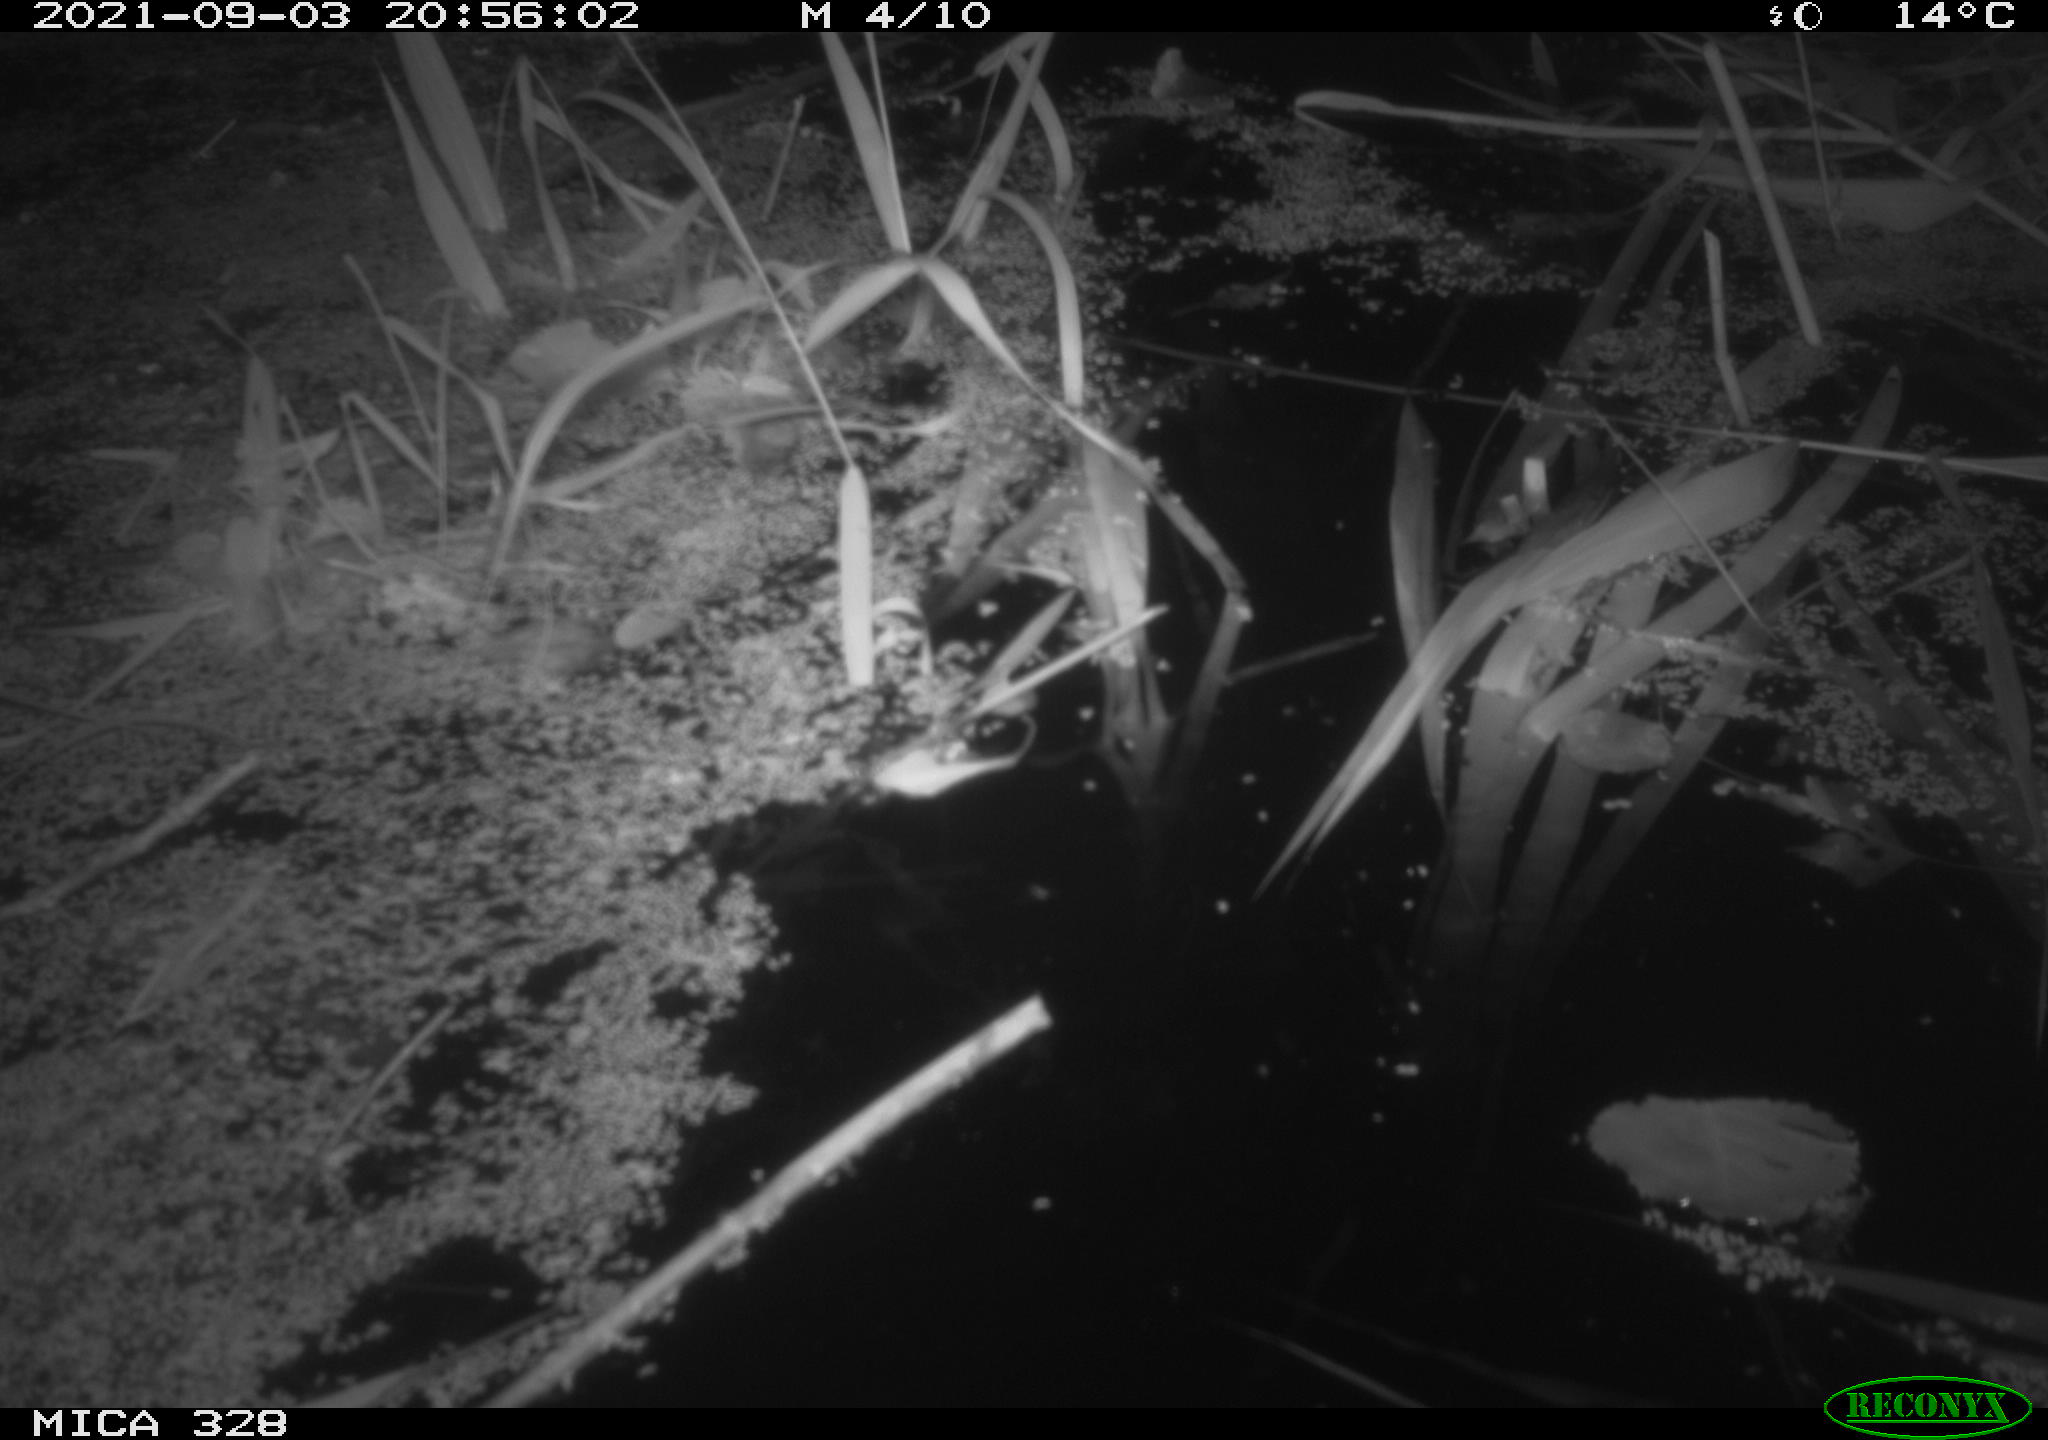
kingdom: Animalia
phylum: Chordata
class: Mammalia
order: Rodentia
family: Cricetidae
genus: Ondatra
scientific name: Ondatra zibethicus
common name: Muskrat
